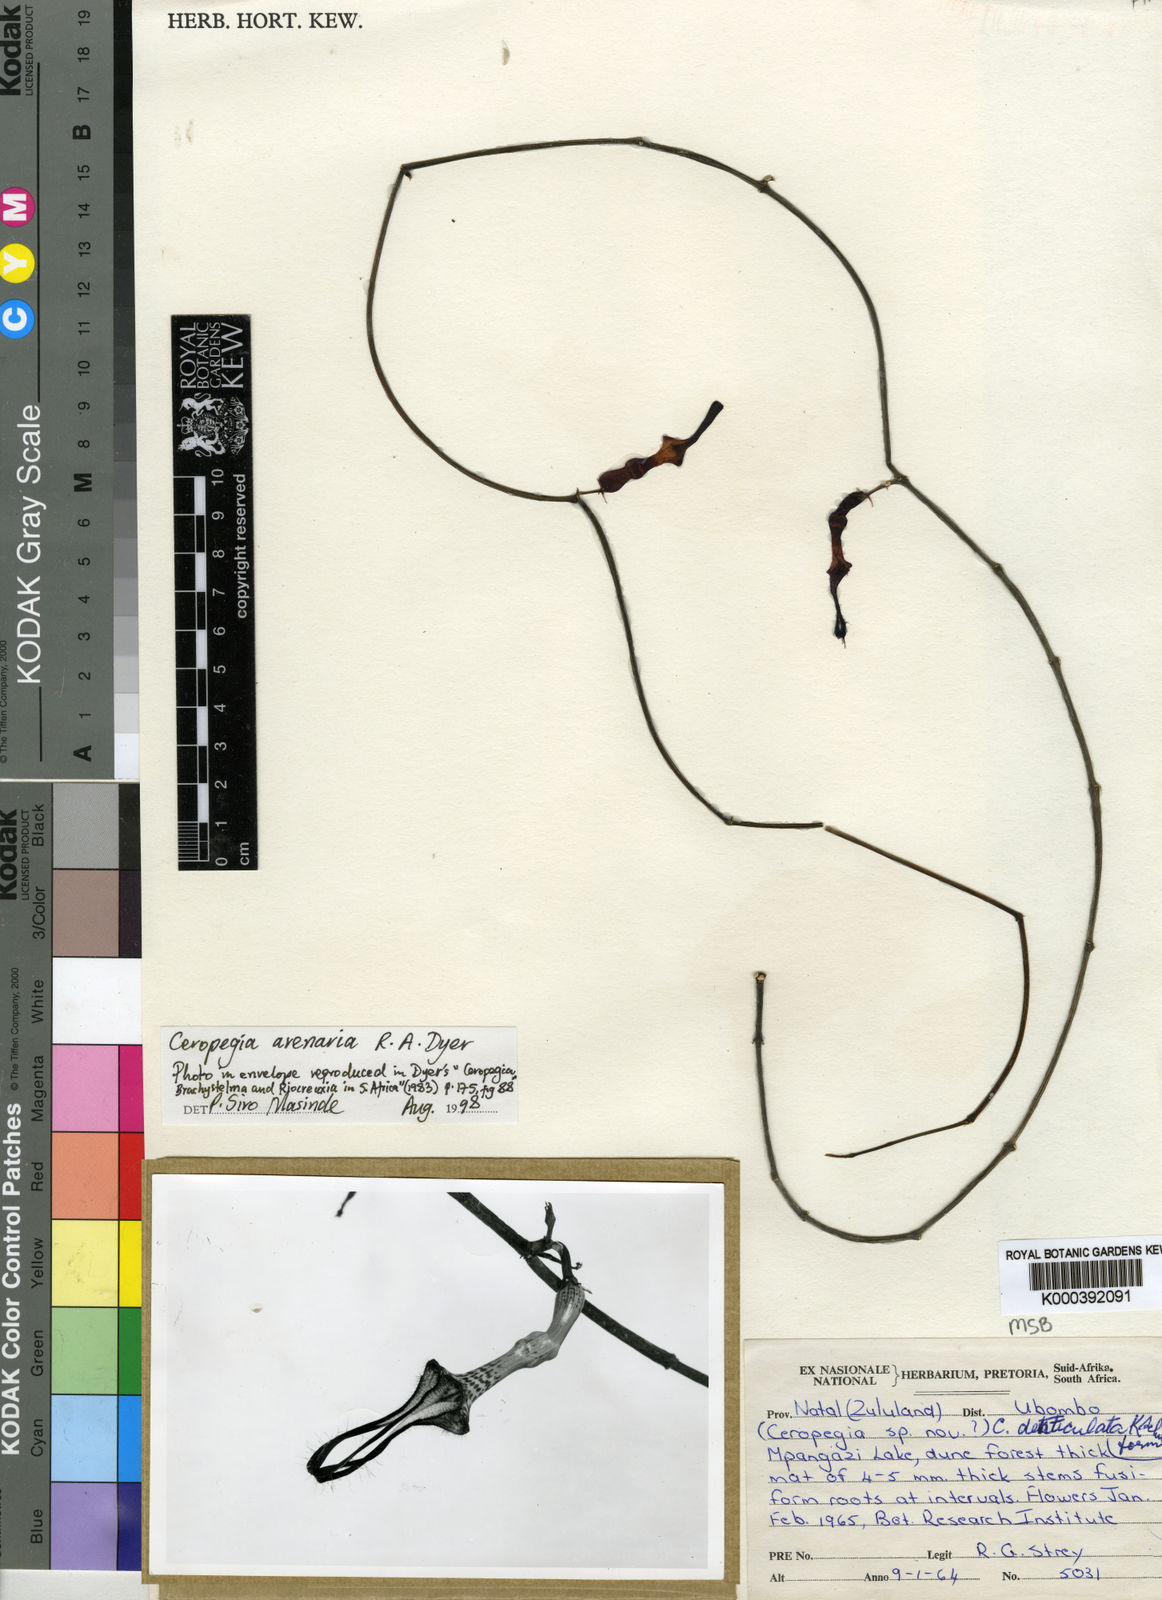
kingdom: Plantae
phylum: Tracheophyta
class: Magnoliopsida
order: Gentianales
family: Apocynaceae
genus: Ceropegia
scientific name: Ceropegia arenaria
